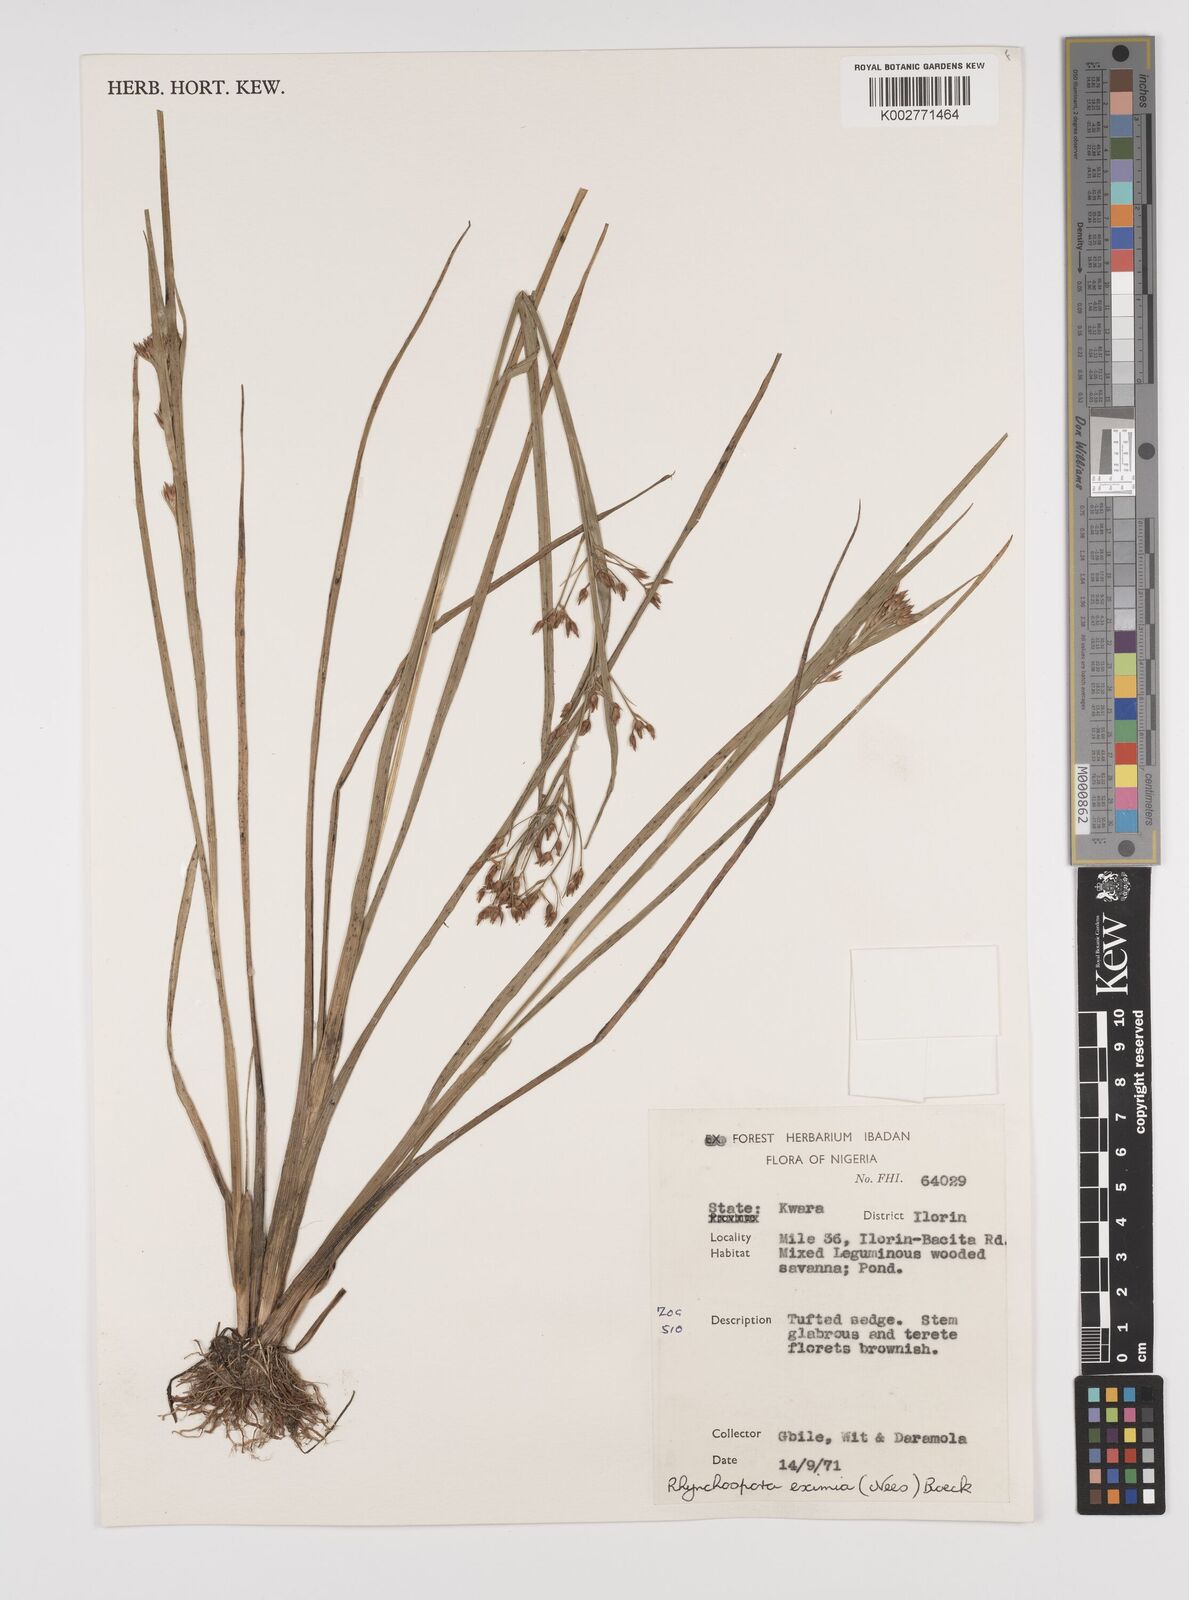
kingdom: Plantae
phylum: Tracheophyta
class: Liliopsida
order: Poales
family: Cyperaceae
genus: Rhynchospora
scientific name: Rhynchospora eximia
